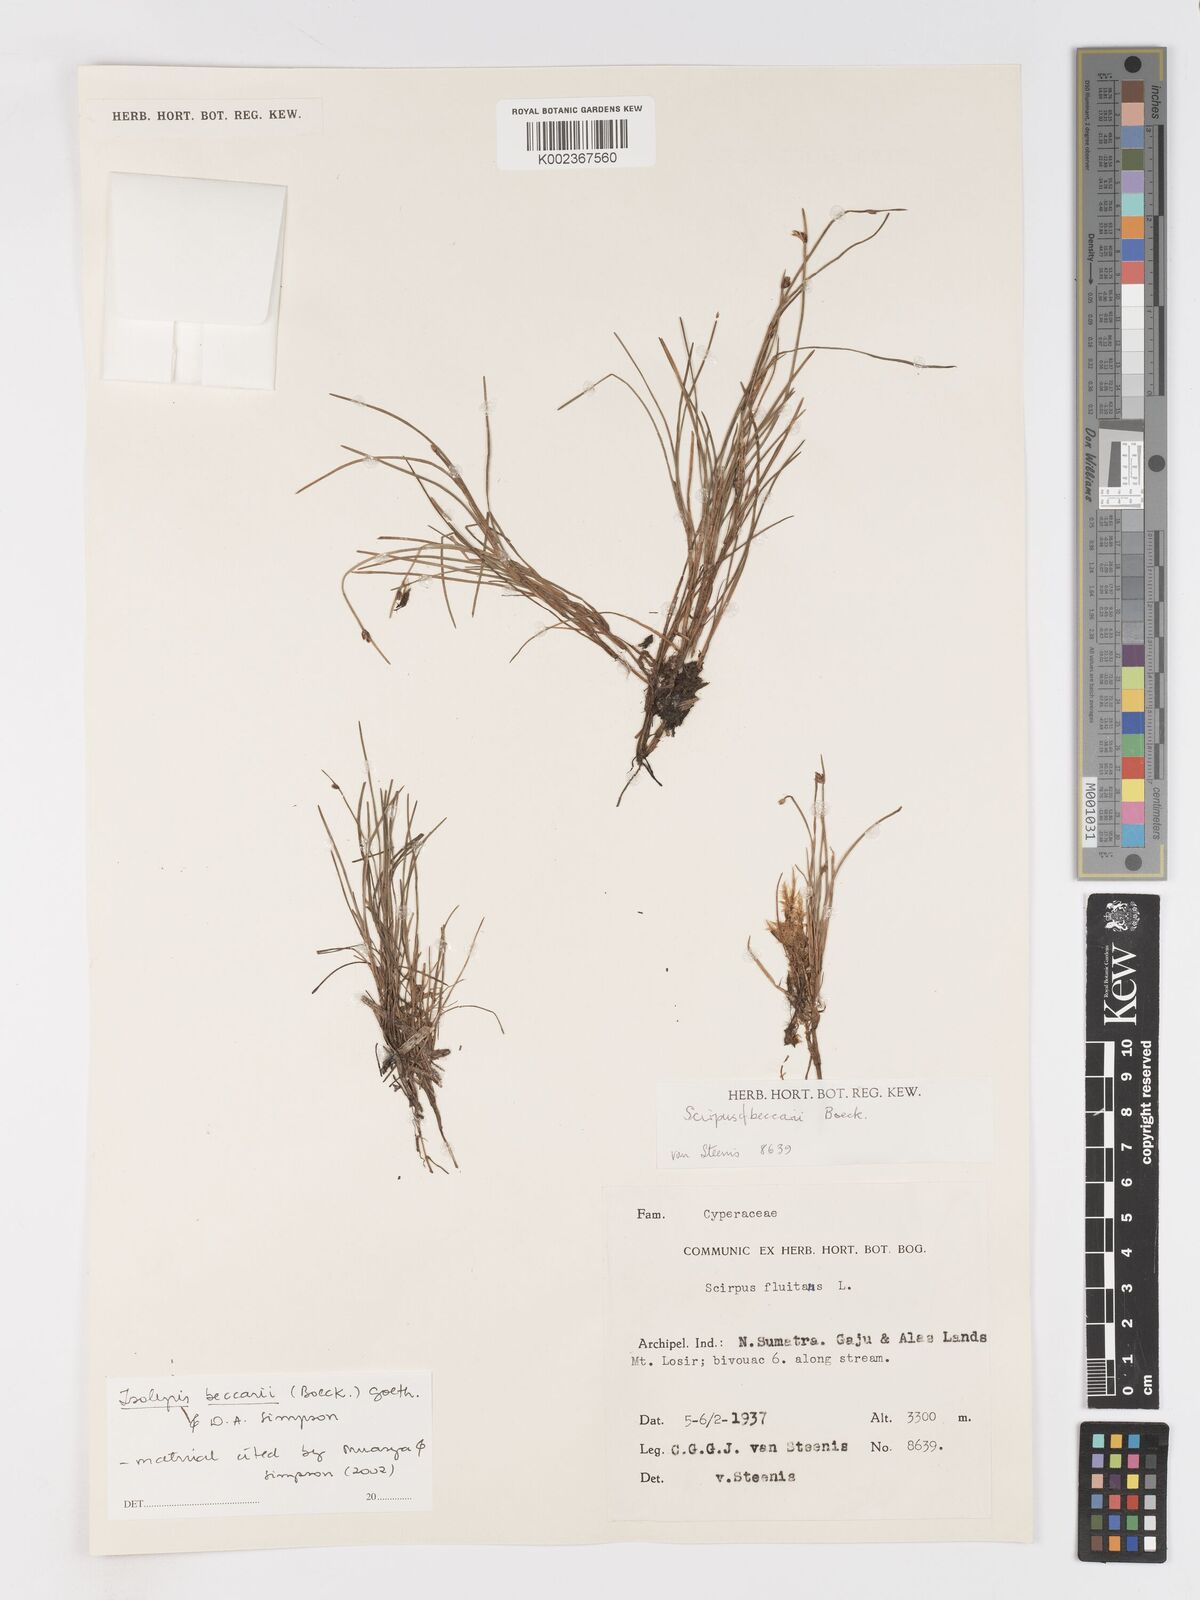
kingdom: Plantae
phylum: Tracheophyta
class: Liliopsida
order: Poales
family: Cyperaceae
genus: Isolepis
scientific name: Isolepis beccarii
